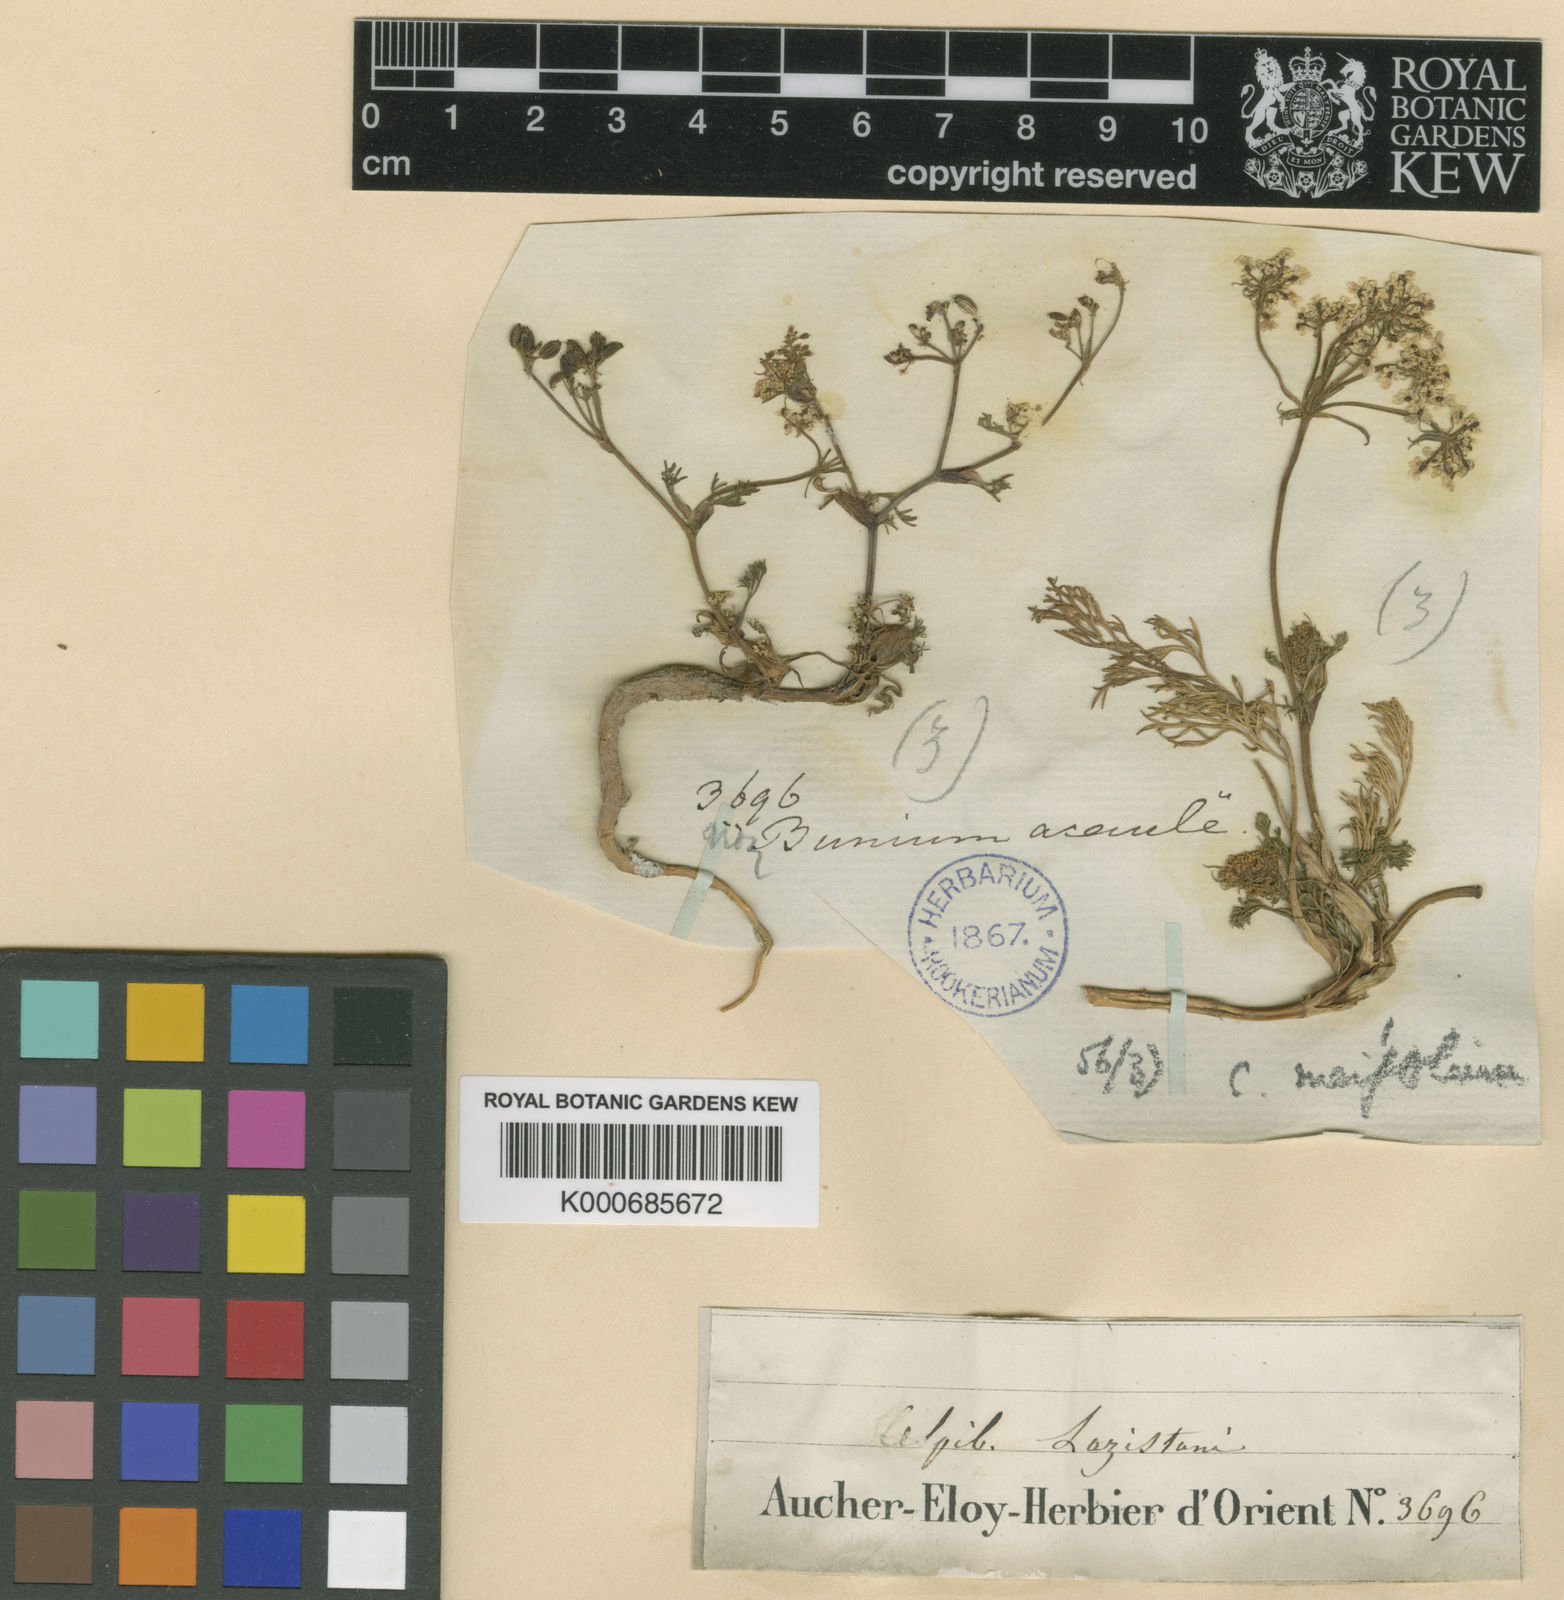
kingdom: Plantae
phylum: Tracheophyta
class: Magnoliopsida
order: Apiales
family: Apiaceae
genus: Carum
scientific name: Carum meifolium
